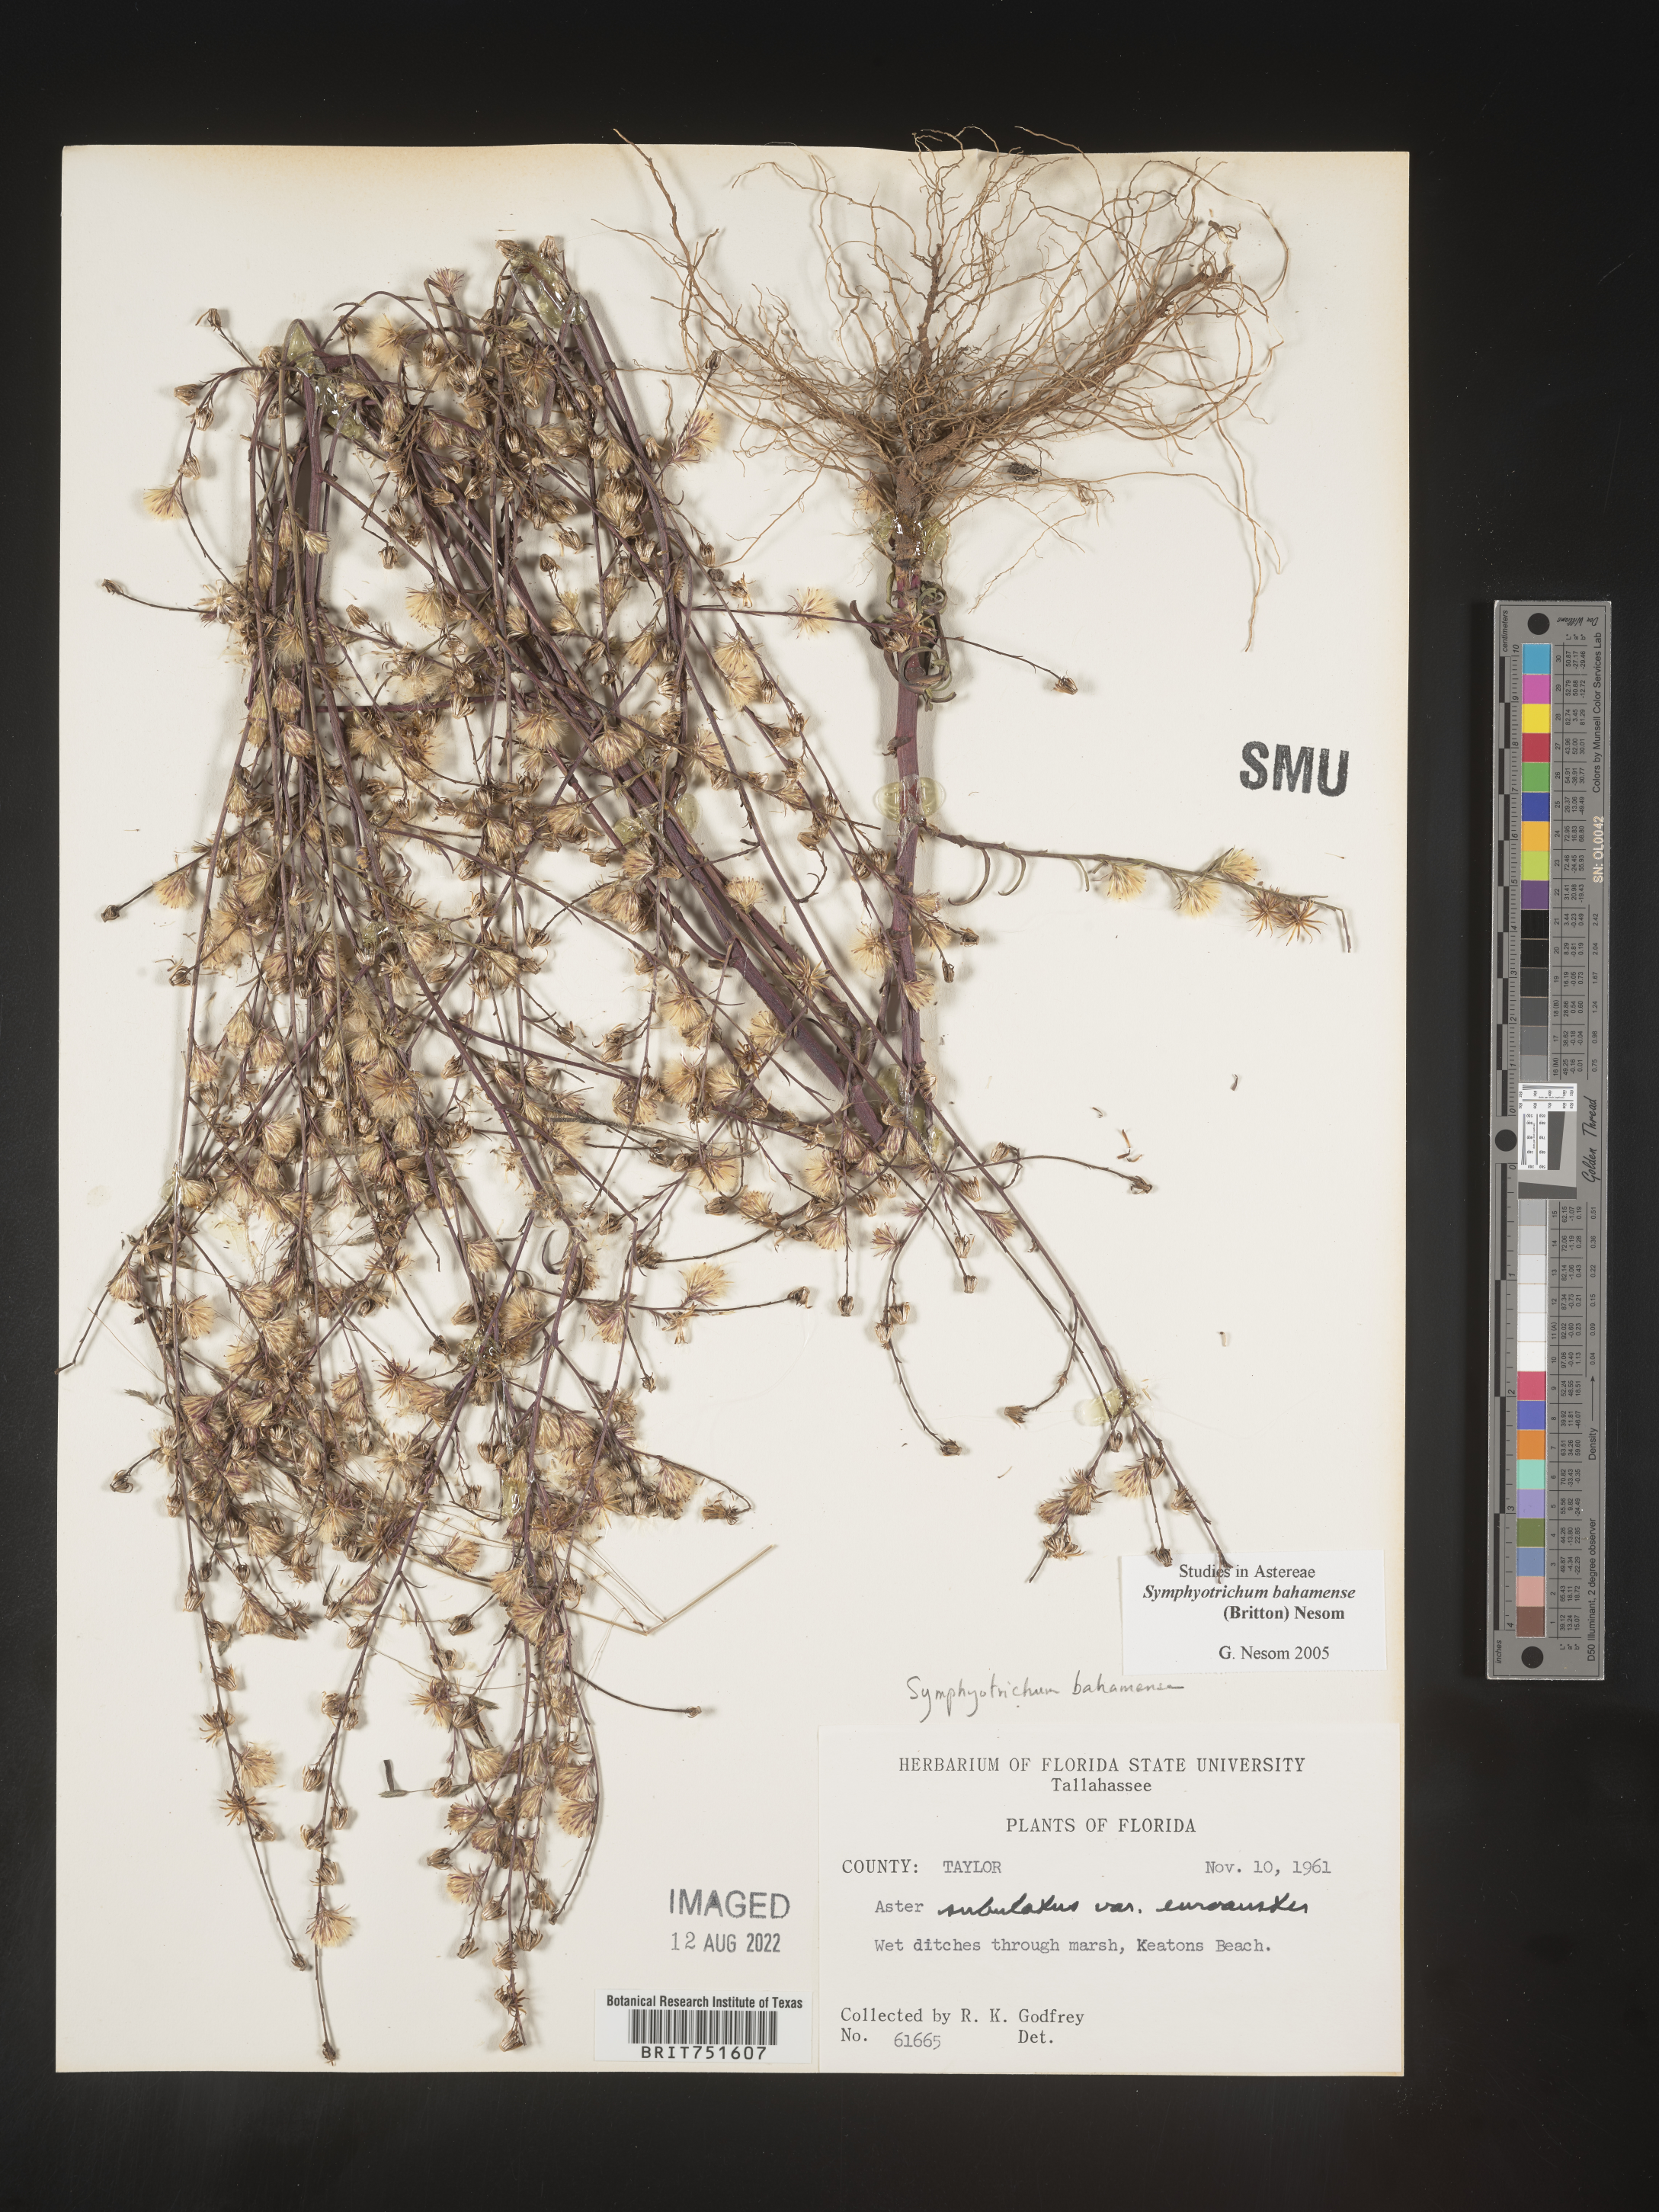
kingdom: Plantae
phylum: Tracheophyta
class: Magnoliopsida
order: Asterales
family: Asteraceae
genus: Symphyotrichum
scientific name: Symphyotrichum subulatum
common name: Annual saltmarsh aster
